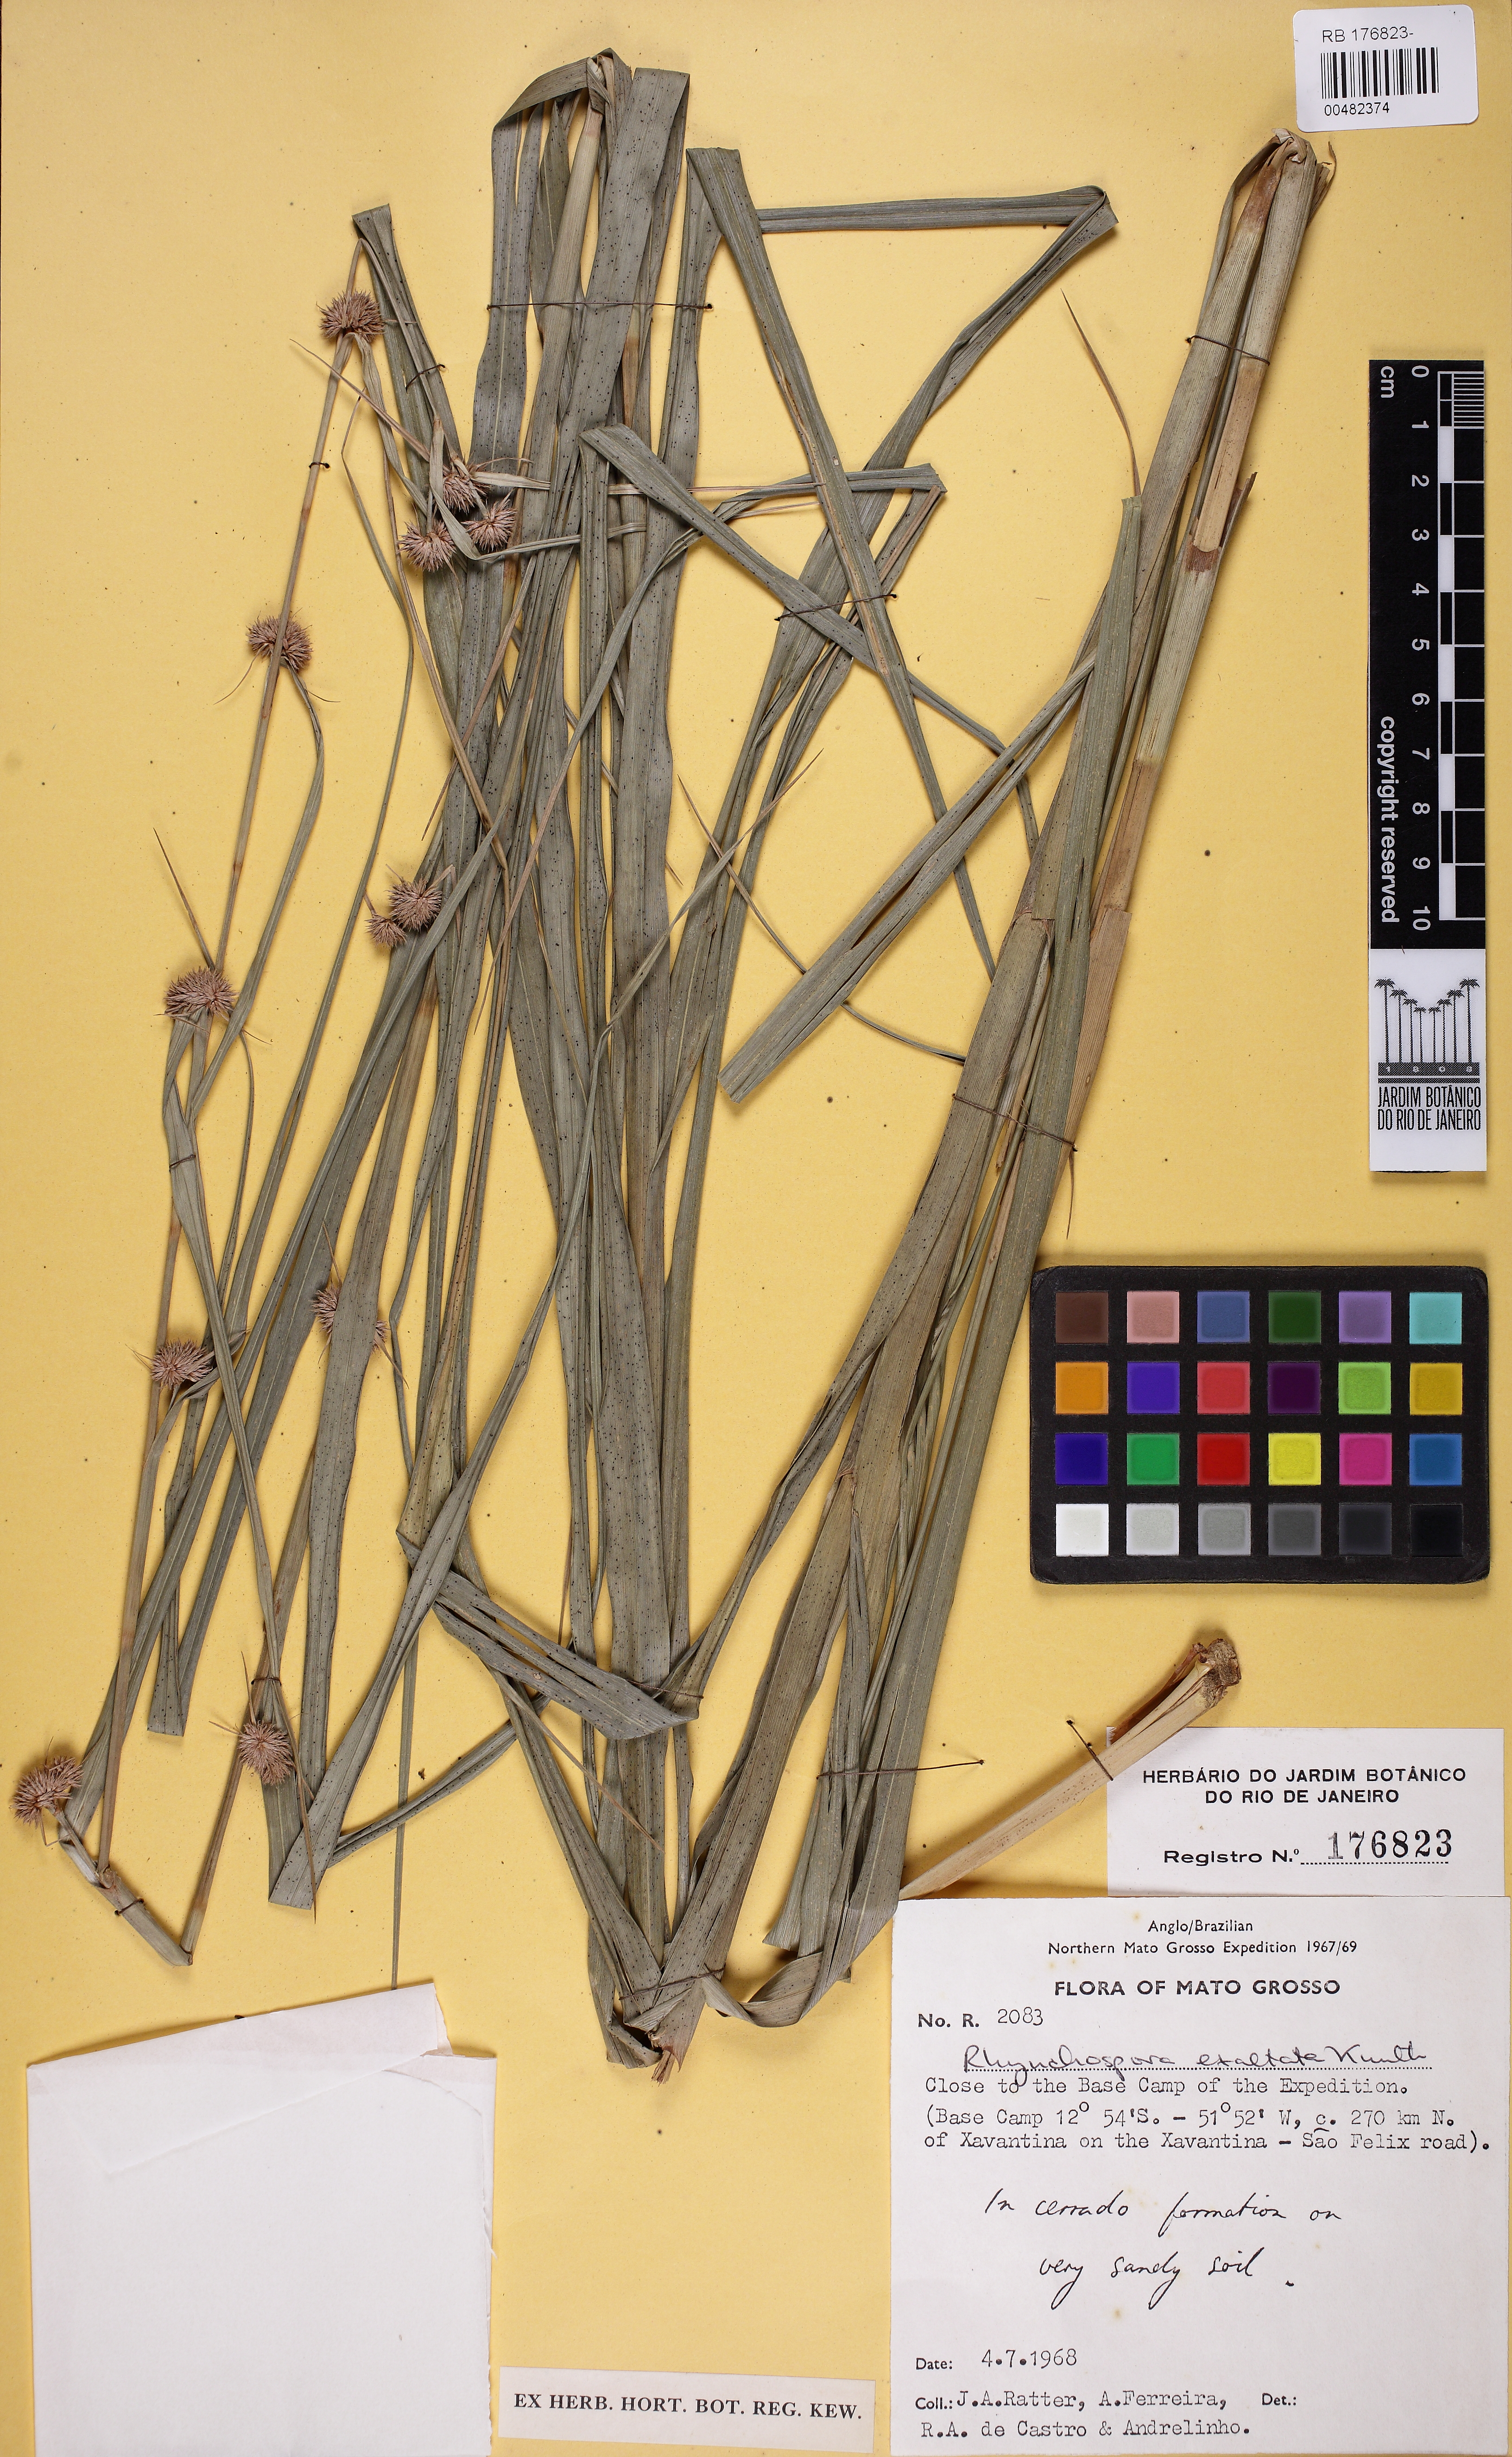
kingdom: Plantae
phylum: Tracheophyta
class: Liliopsida
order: Poales
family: Cyperaceae
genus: Rhynchospora
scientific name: Rhynchospora exaltata
